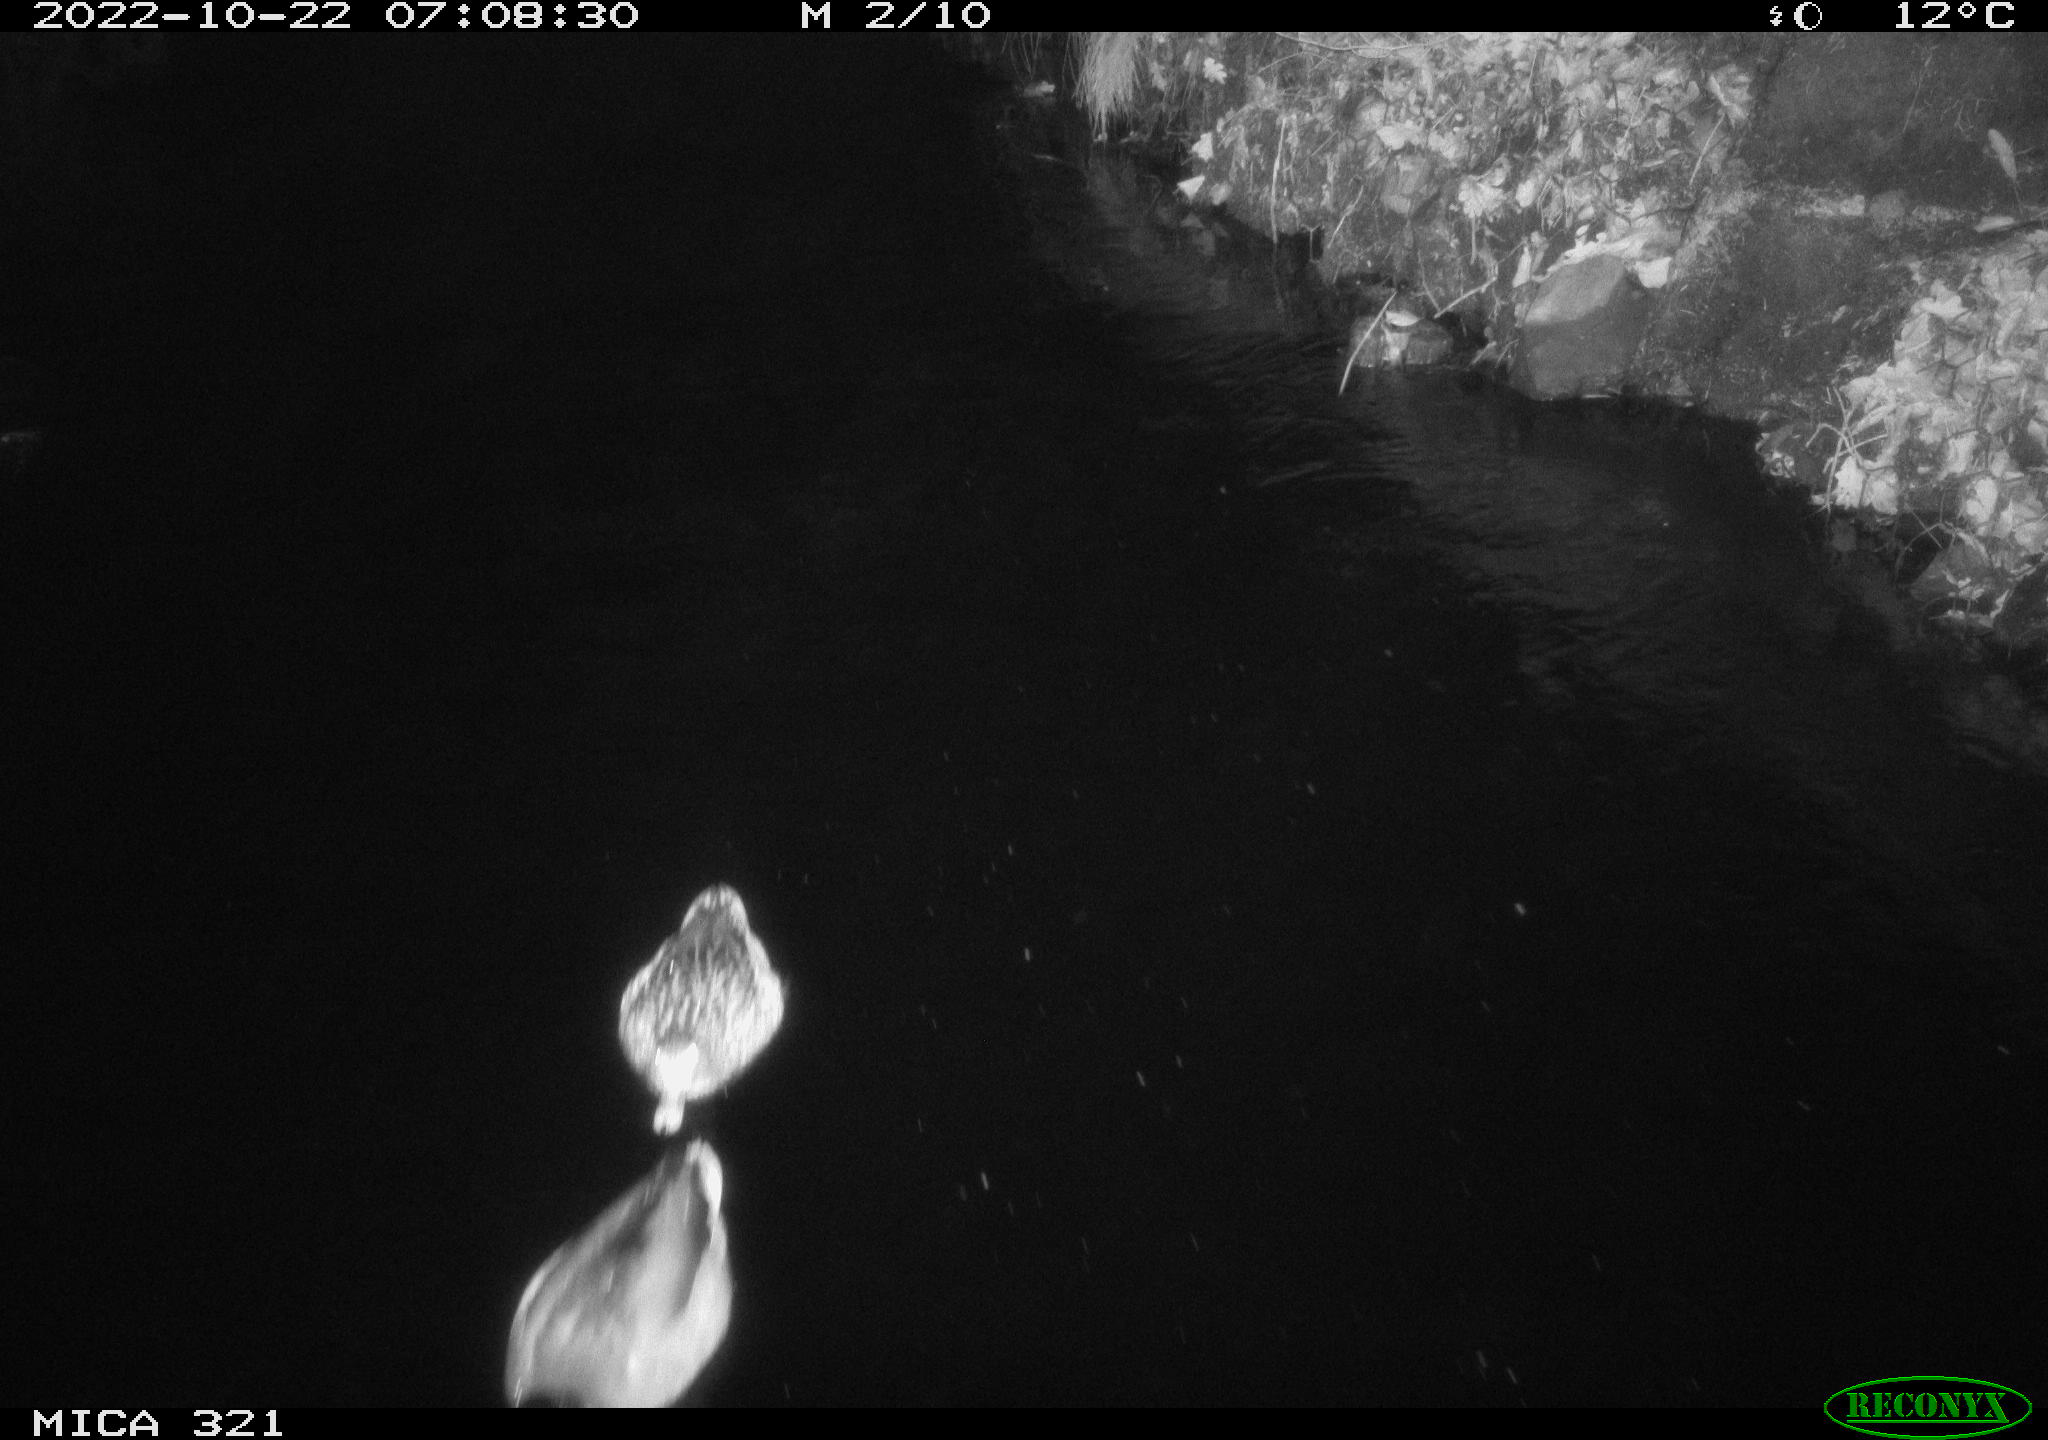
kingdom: Animalia
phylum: Chordata
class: Aves
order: Anseriformes
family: Anatidae
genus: Anas
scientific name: Anas
